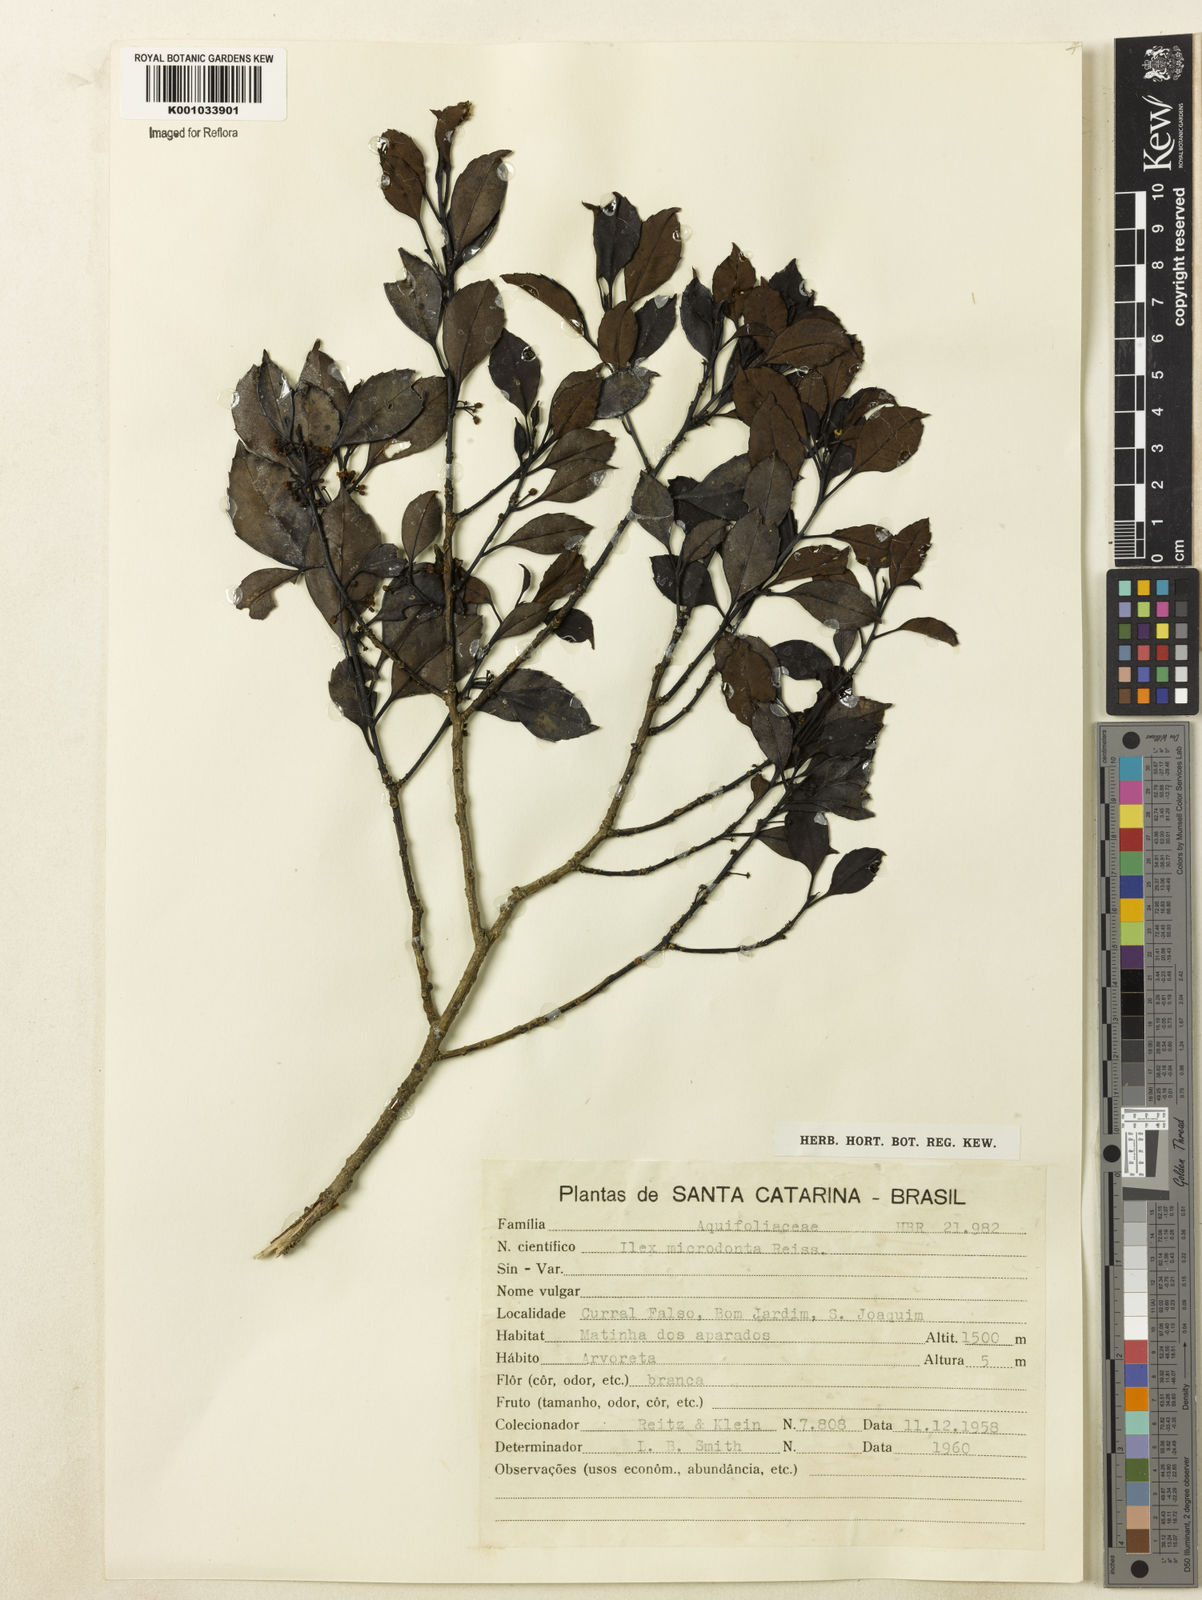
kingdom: Plantae
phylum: Tracheophyta
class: Magnoliopsida
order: Aquifoliales
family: Aquifoliaceae
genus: Ilex
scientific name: Ilex microdonta
